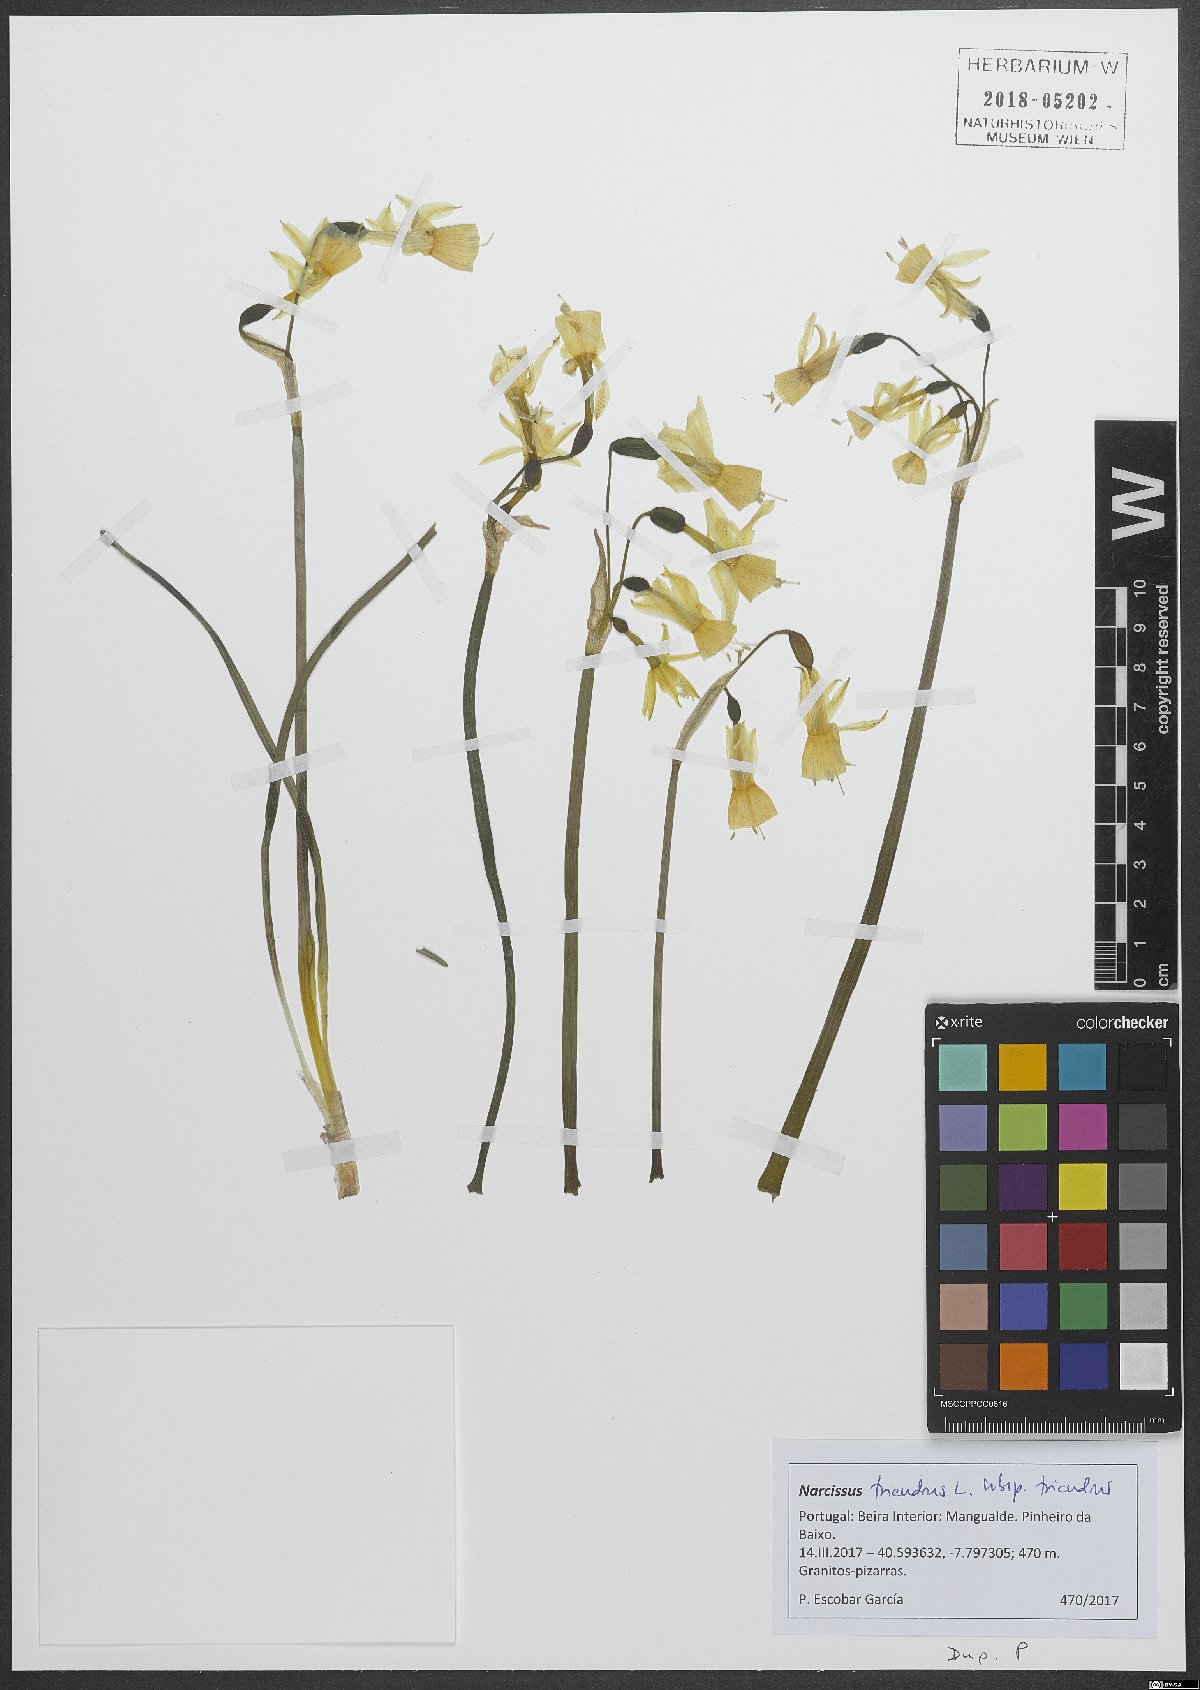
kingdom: Plantae
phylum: Tracheophyta
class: Liliopsida
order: Asparagales
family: Amaryllidaceae
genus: Narcissus
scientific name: Narcissus triandrus
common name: Angel's-tears
